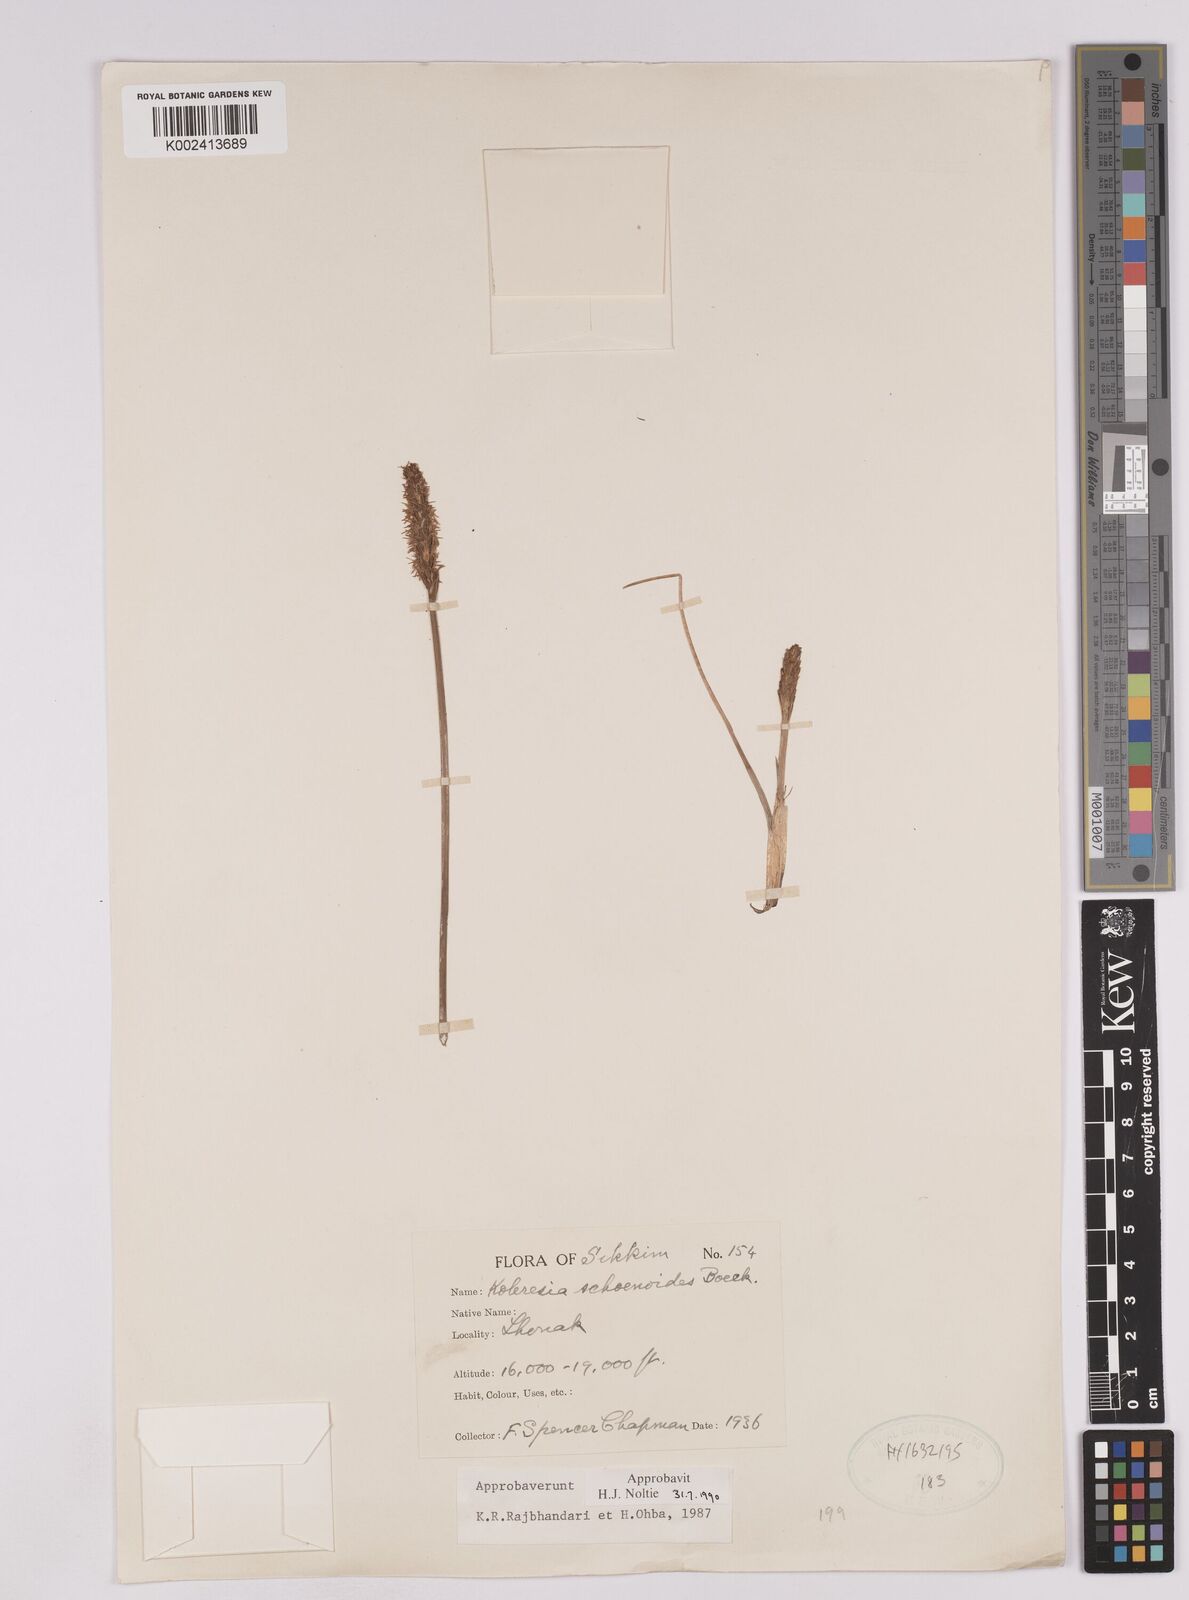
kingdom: Plantae
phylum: Tracheophyta
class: Liliopsida
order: Poales
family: Cyperaceae
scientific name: Cyperaceae
